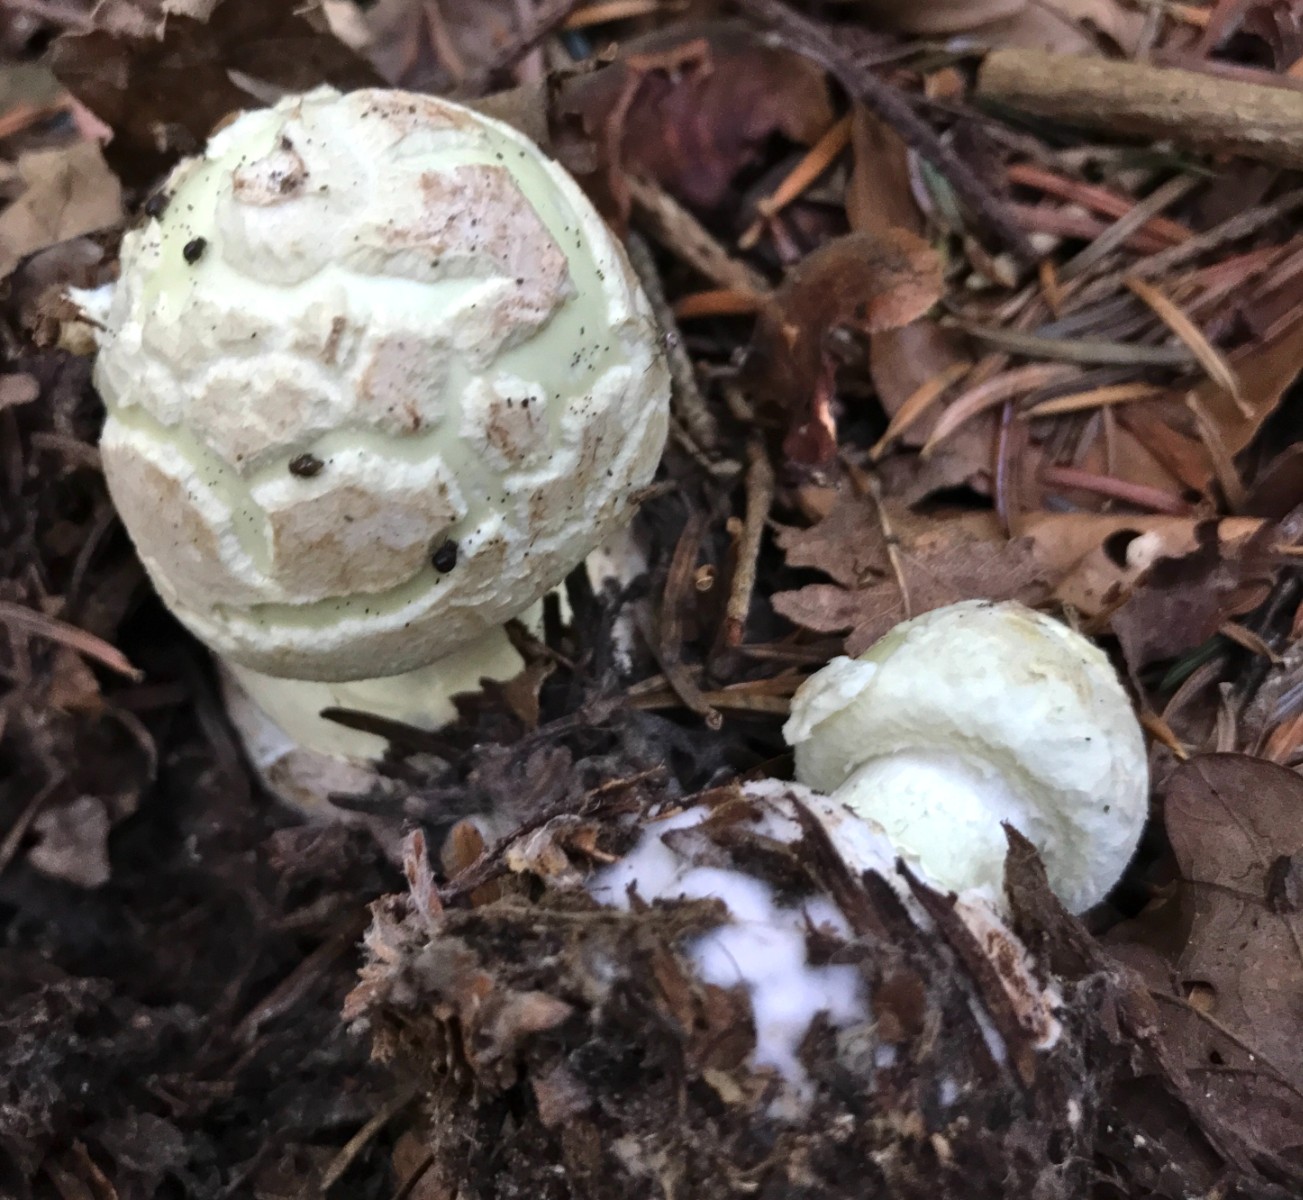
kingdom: Fungi
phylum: Basidiomycota
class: Agaricomycetes
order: Agaricales
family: Amanitaceae
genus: Amanita
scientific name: Amanita citrina
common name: kugleknoldet fluesvamp
